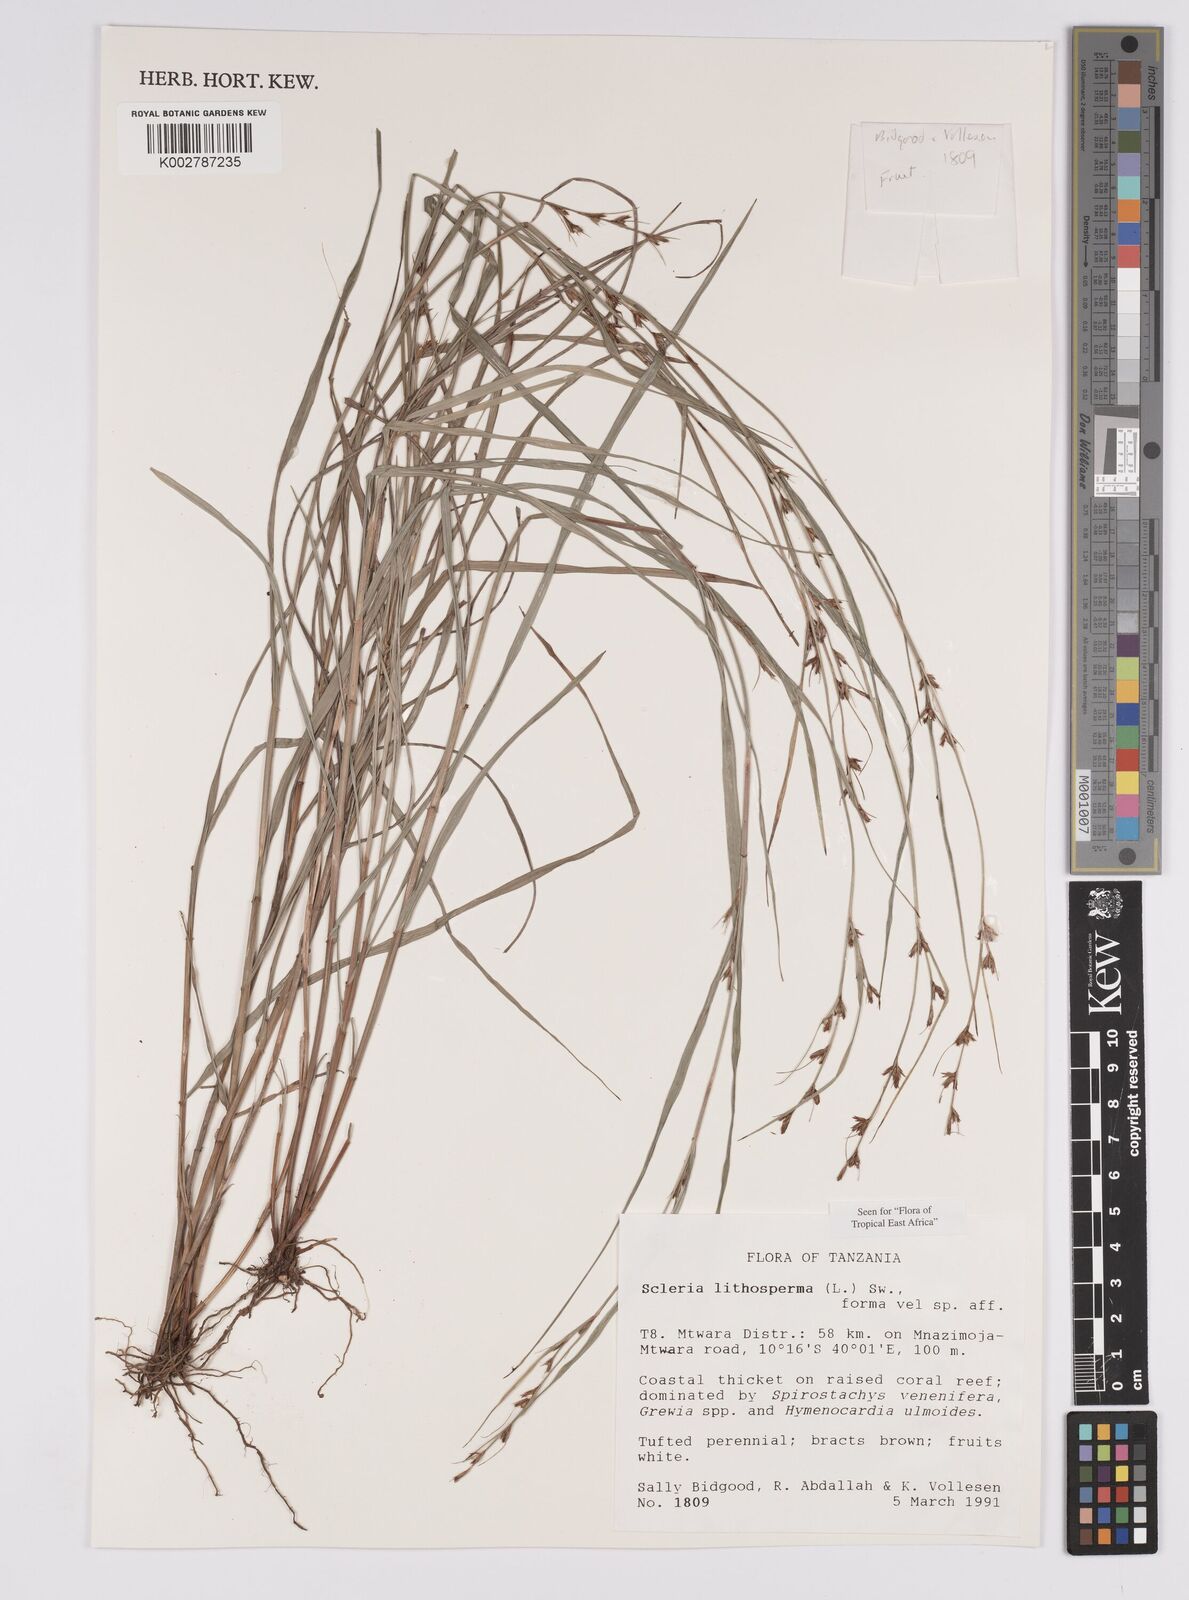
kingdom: Plantae
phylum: Tracheophyta
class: Liliopsida
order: Poales
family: Cyperaceae
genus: Scleria
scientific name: Scleria lithosperma
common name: Florida keys nut-rush
